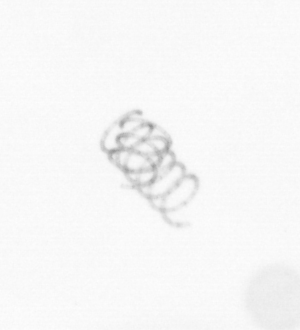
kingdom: Chromista
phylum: Ochrophyta
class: Bacillariophyceae
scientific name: Bacillariophyceae
